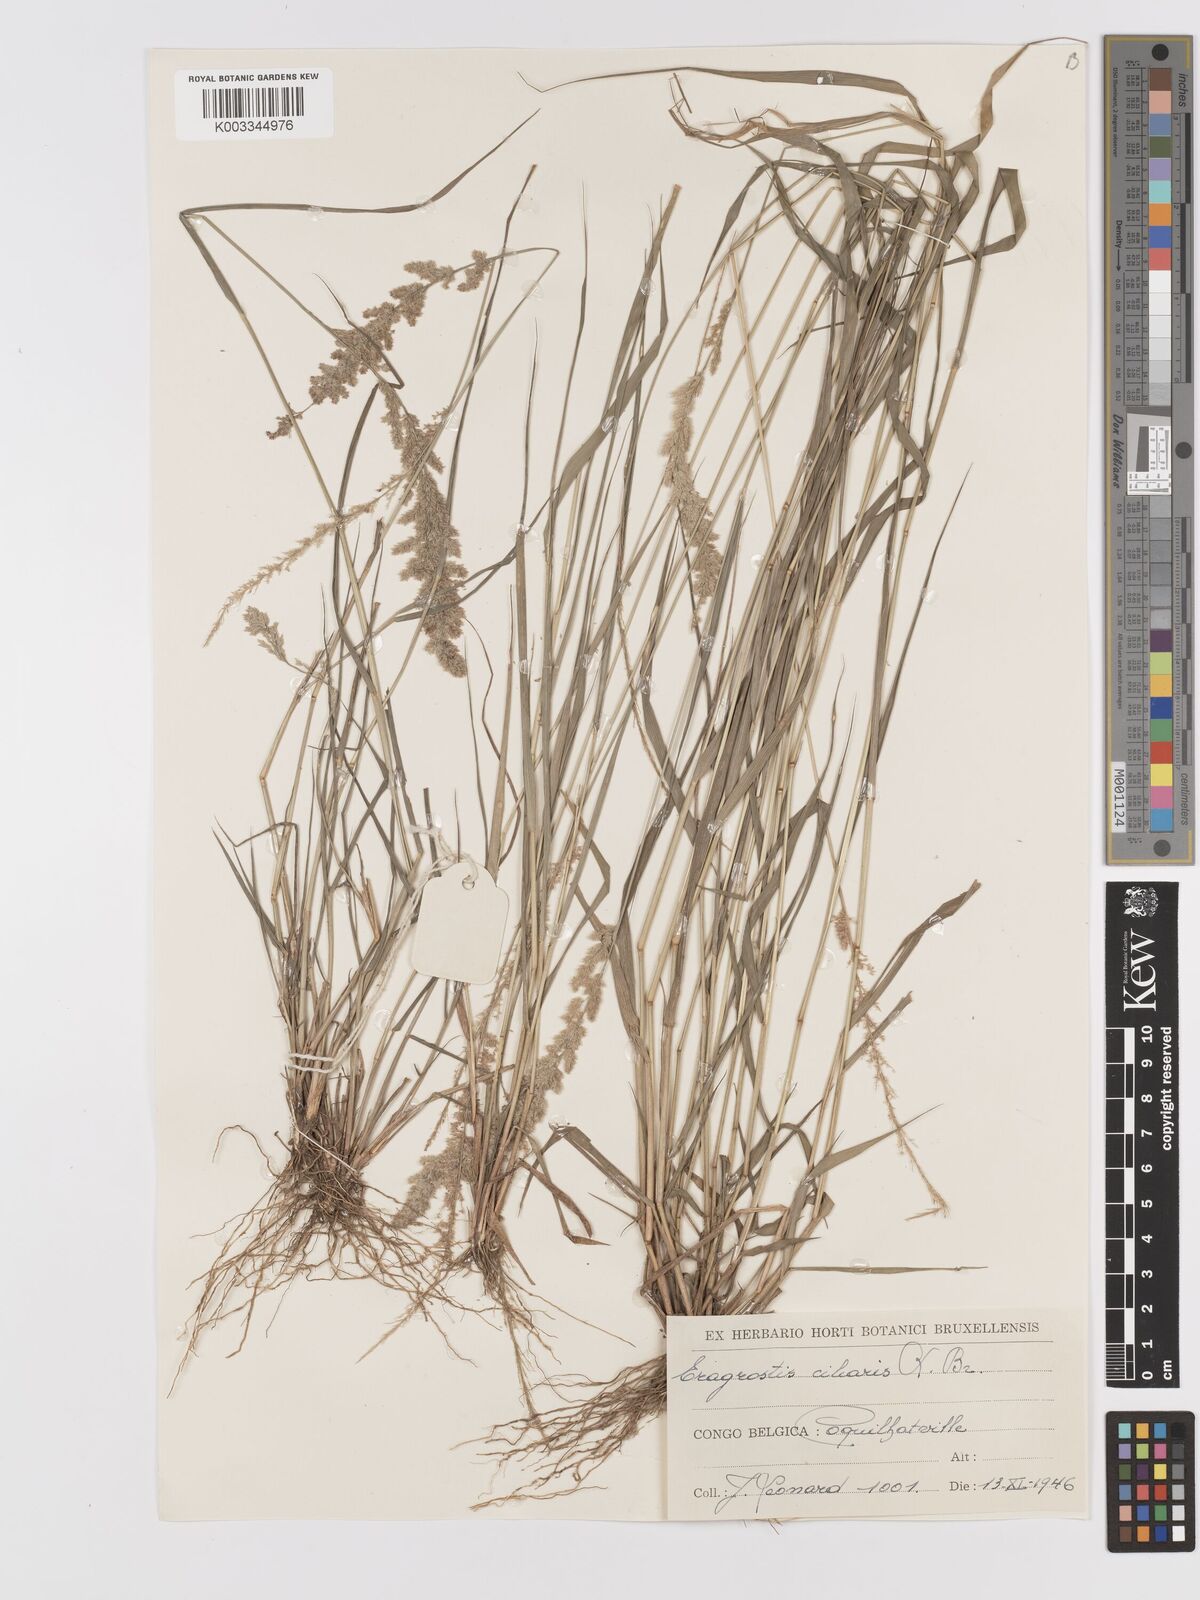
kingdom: Plantae
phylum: Tracheophyta
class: Liliopsida
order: Poales
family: Poaceae
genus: Eragrostis
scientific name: Eragrostis ciliaris
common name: Gophertail lovegrass
